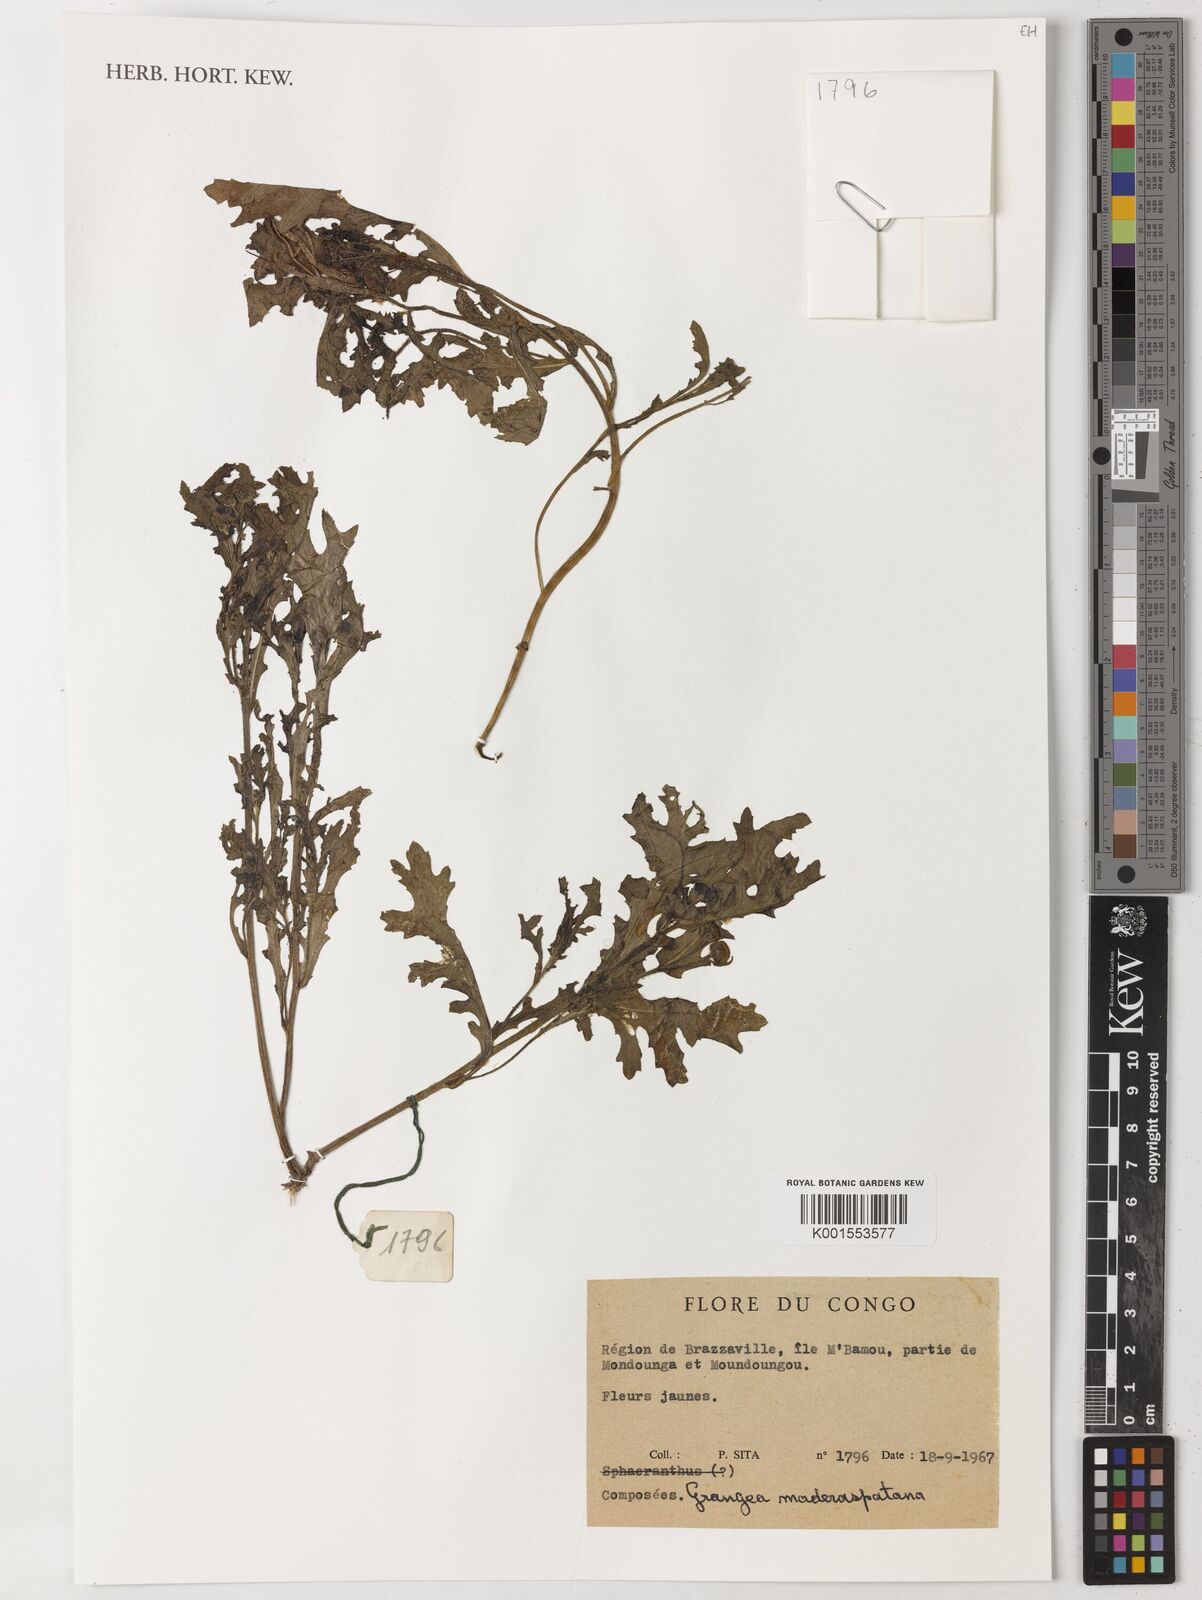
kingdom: Plantae
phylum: Tracheophyta
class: Magnoliopsida
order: Asterales
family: Asteraceae
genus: Grangea
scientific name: Grangea maderaspatana
